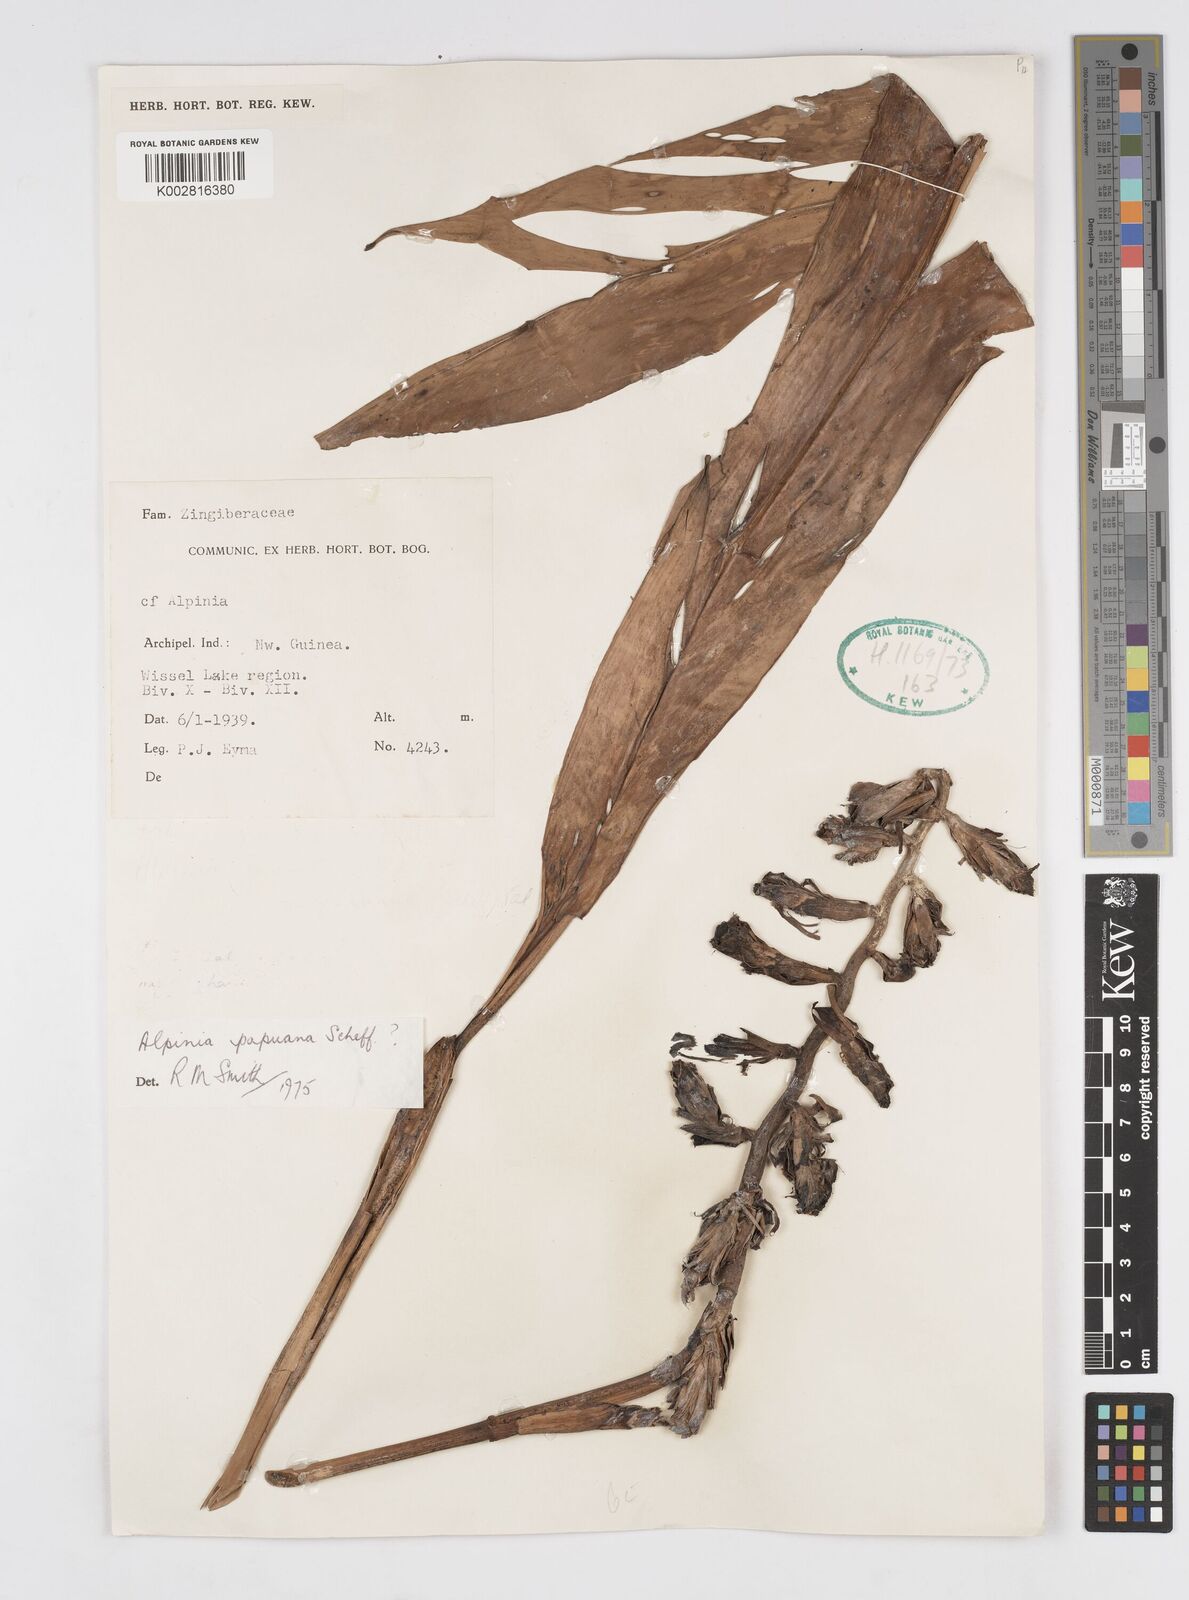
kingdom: Plantae
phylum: Tracheophyta
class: Liliopsida
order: Zingiberales
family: Zingiberaceae
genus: Alpinia
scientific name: Alpinia papuana
